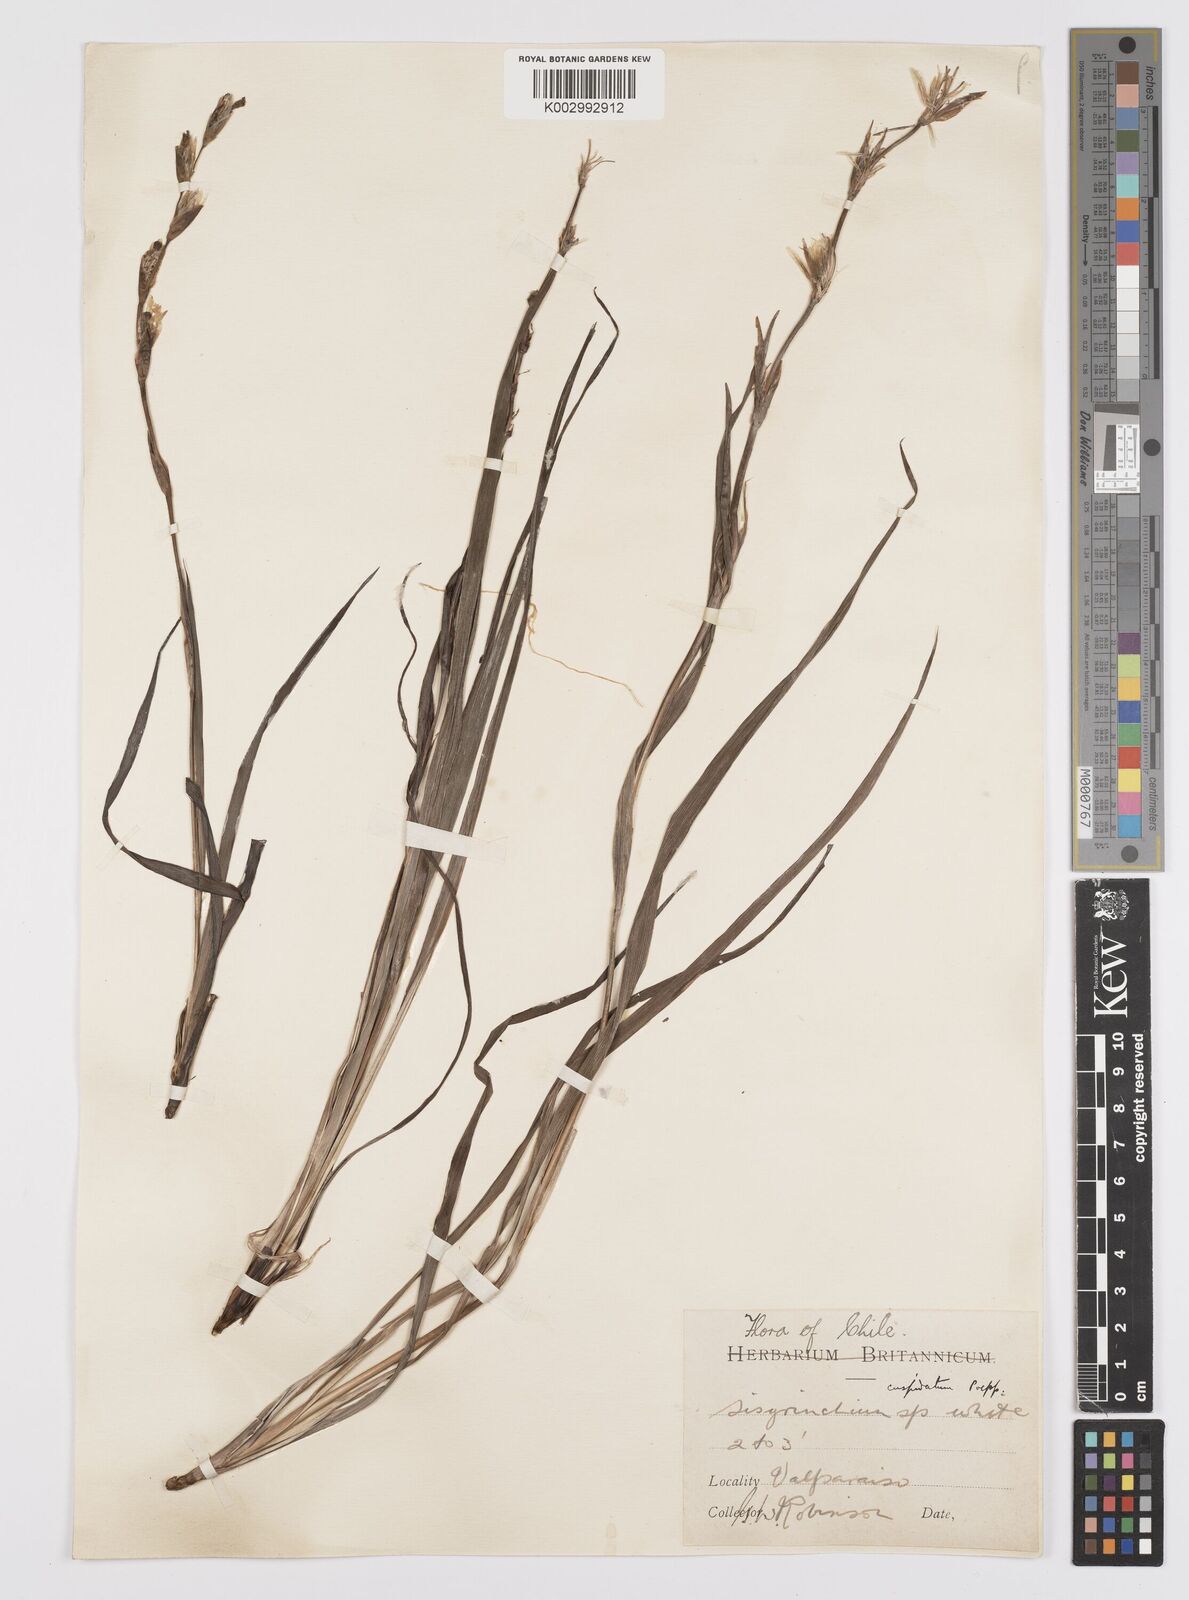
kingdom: Plantae
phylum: Tracheophyta
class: Liliopsida
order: Asparagales
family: Iridaceae
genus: Sisyrinchium
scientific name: Sisyrinchium cuspidatum
